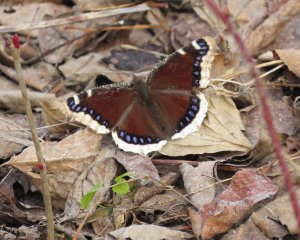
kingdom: Animalia
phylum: Arthropoda
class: Insecta
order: Lepidoptera
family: Nymphalidae
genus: Nymphalis
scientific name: Nymphalis antiopa
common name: Mourning Cloak
